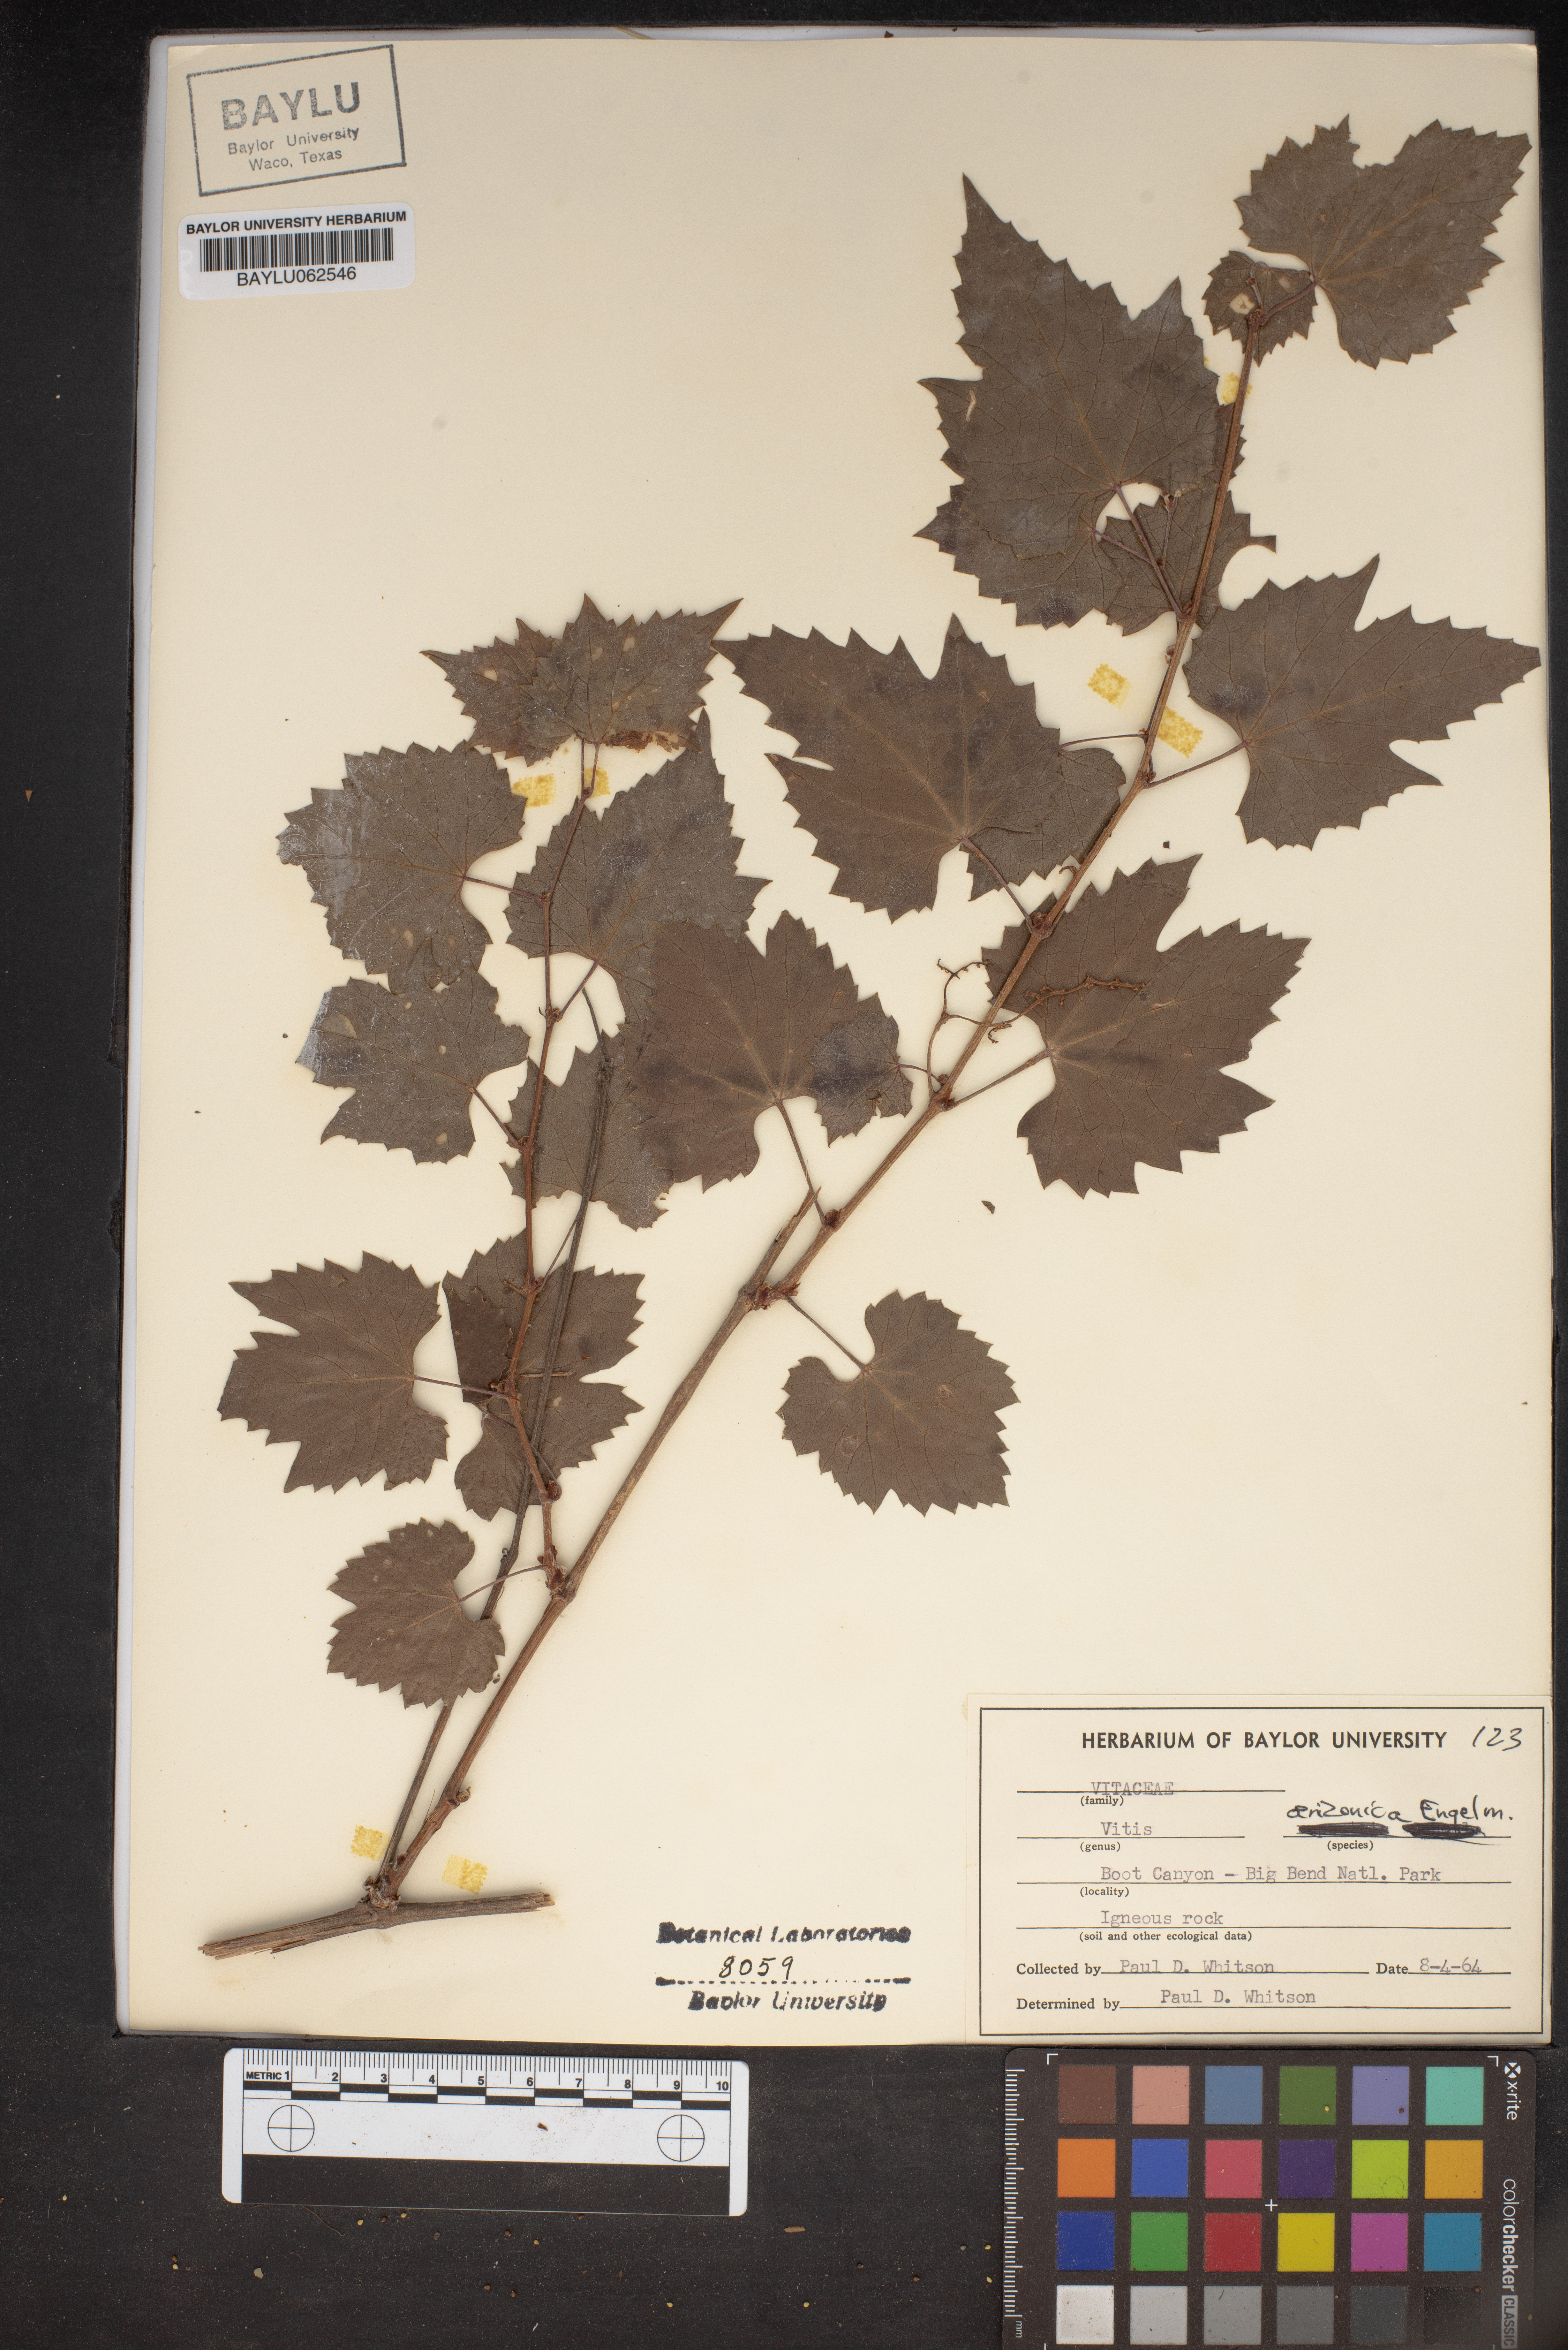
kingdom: Plantae
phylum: Tracheophyta
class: Magnoliopsida
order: Vitales
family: Vitaceae
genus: Vitis
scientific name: Vitis arizonica
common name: Canyon grape
